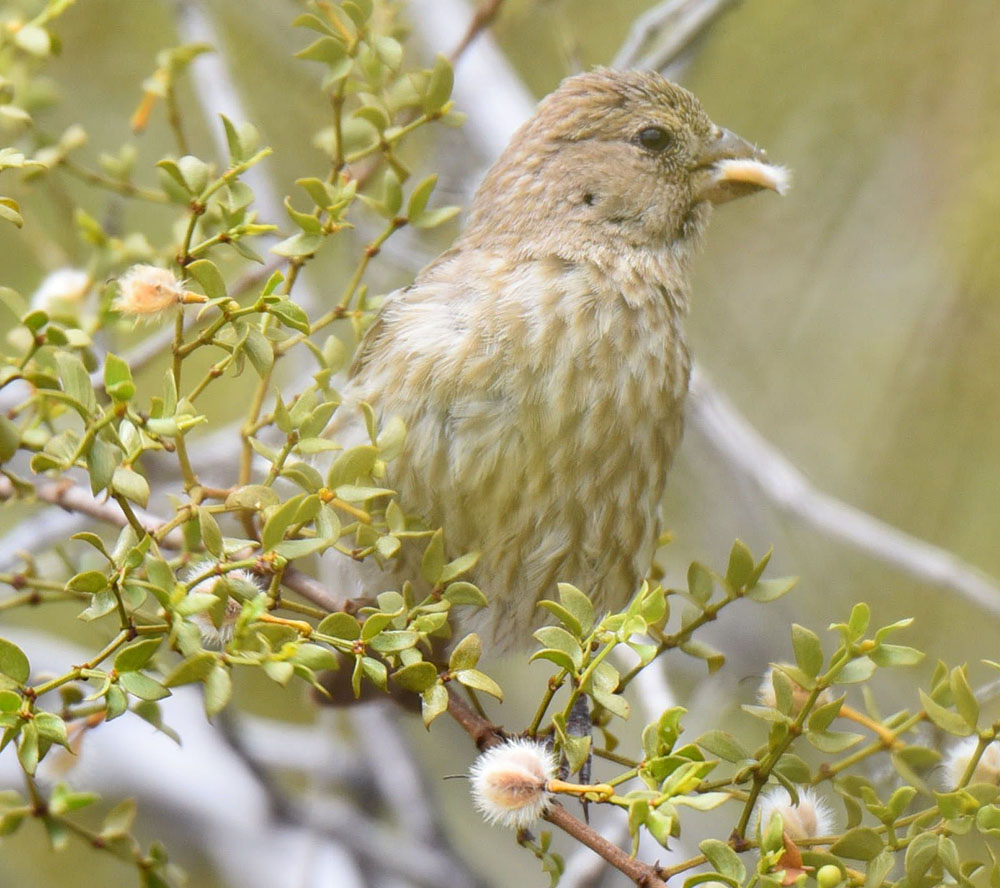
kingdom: Animalia
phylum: Chordata
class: Aves
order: Passeriformes
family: Fringillidae
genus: Haemorhous
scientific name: Haemorhous mexicanus
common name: House finch
